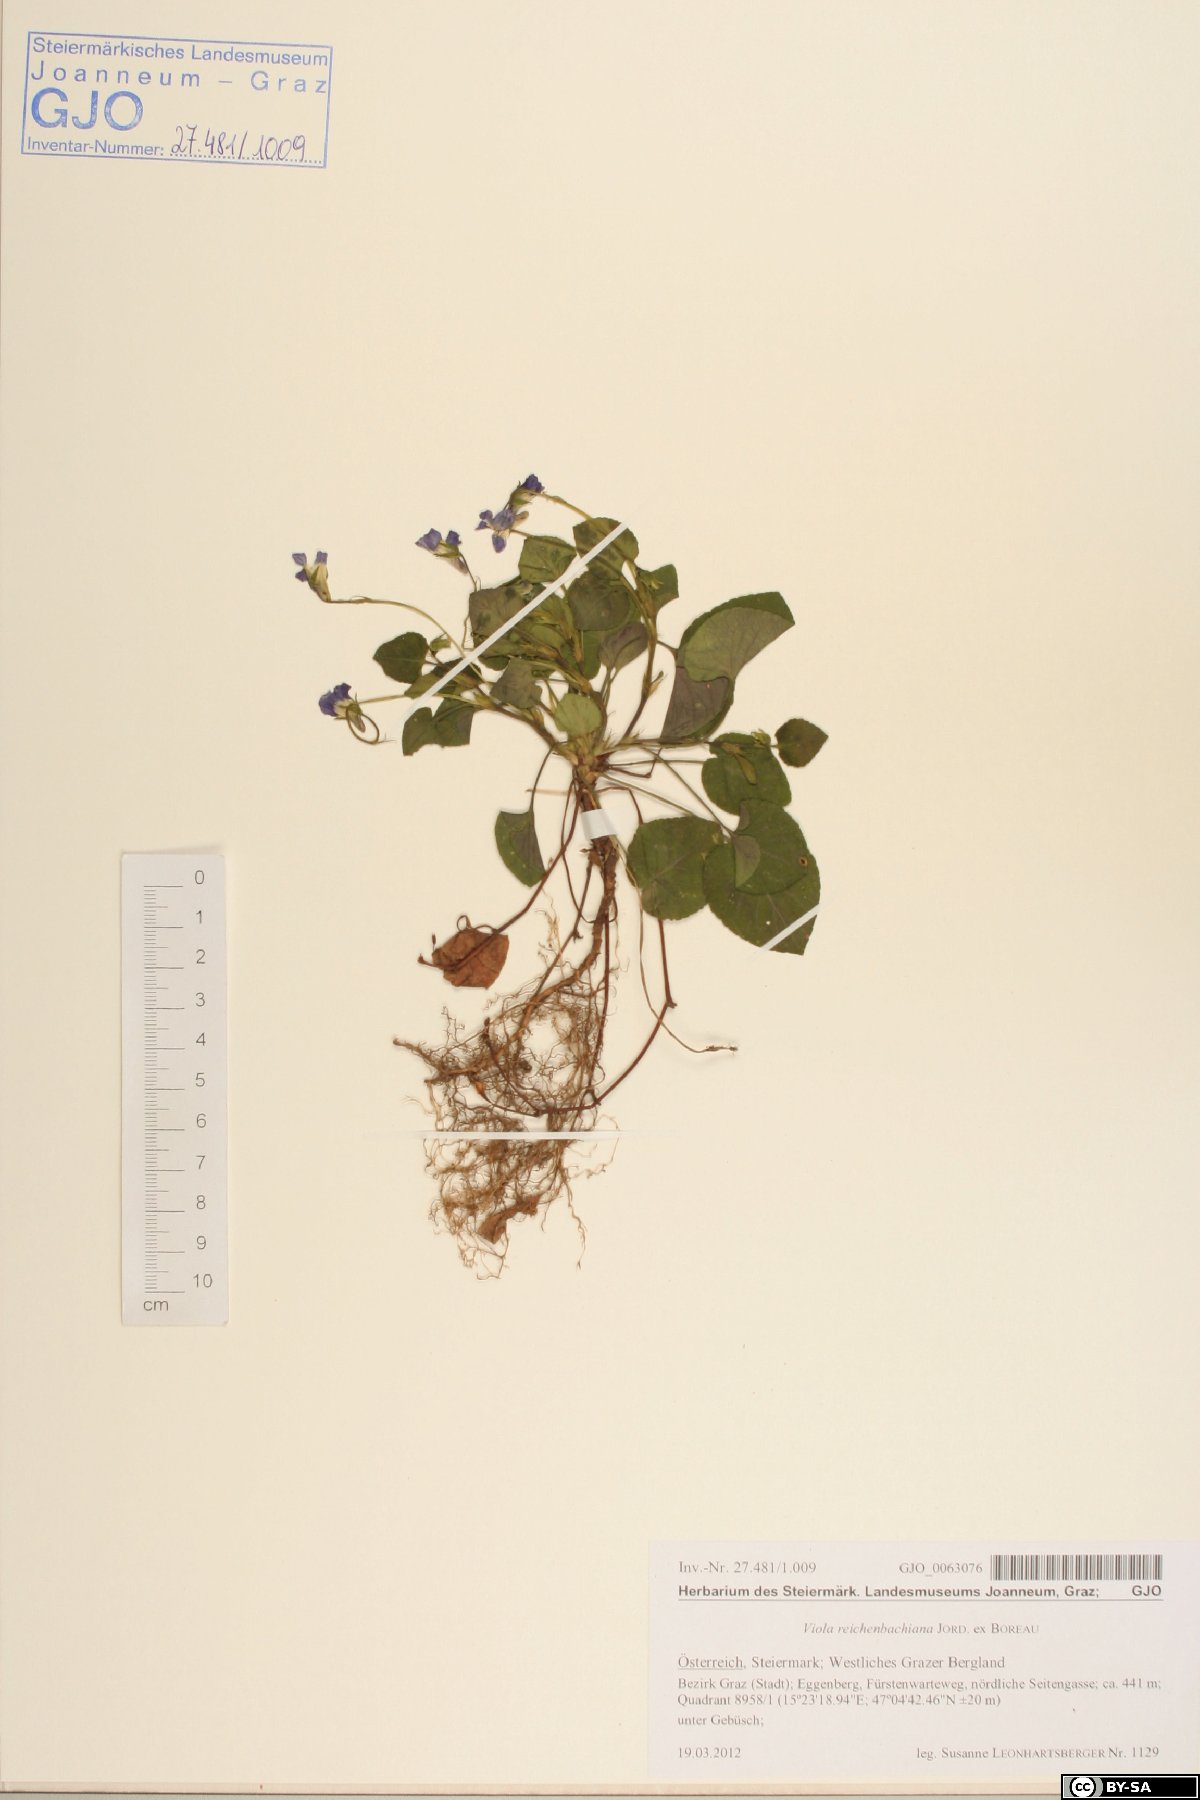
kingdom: Plantae
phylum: Tracheophyta
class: Magnoliopsida
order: Malpighiales
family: Violaceae
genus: Viola
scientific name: Viola reichenbachiana
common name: Early dog-violet
